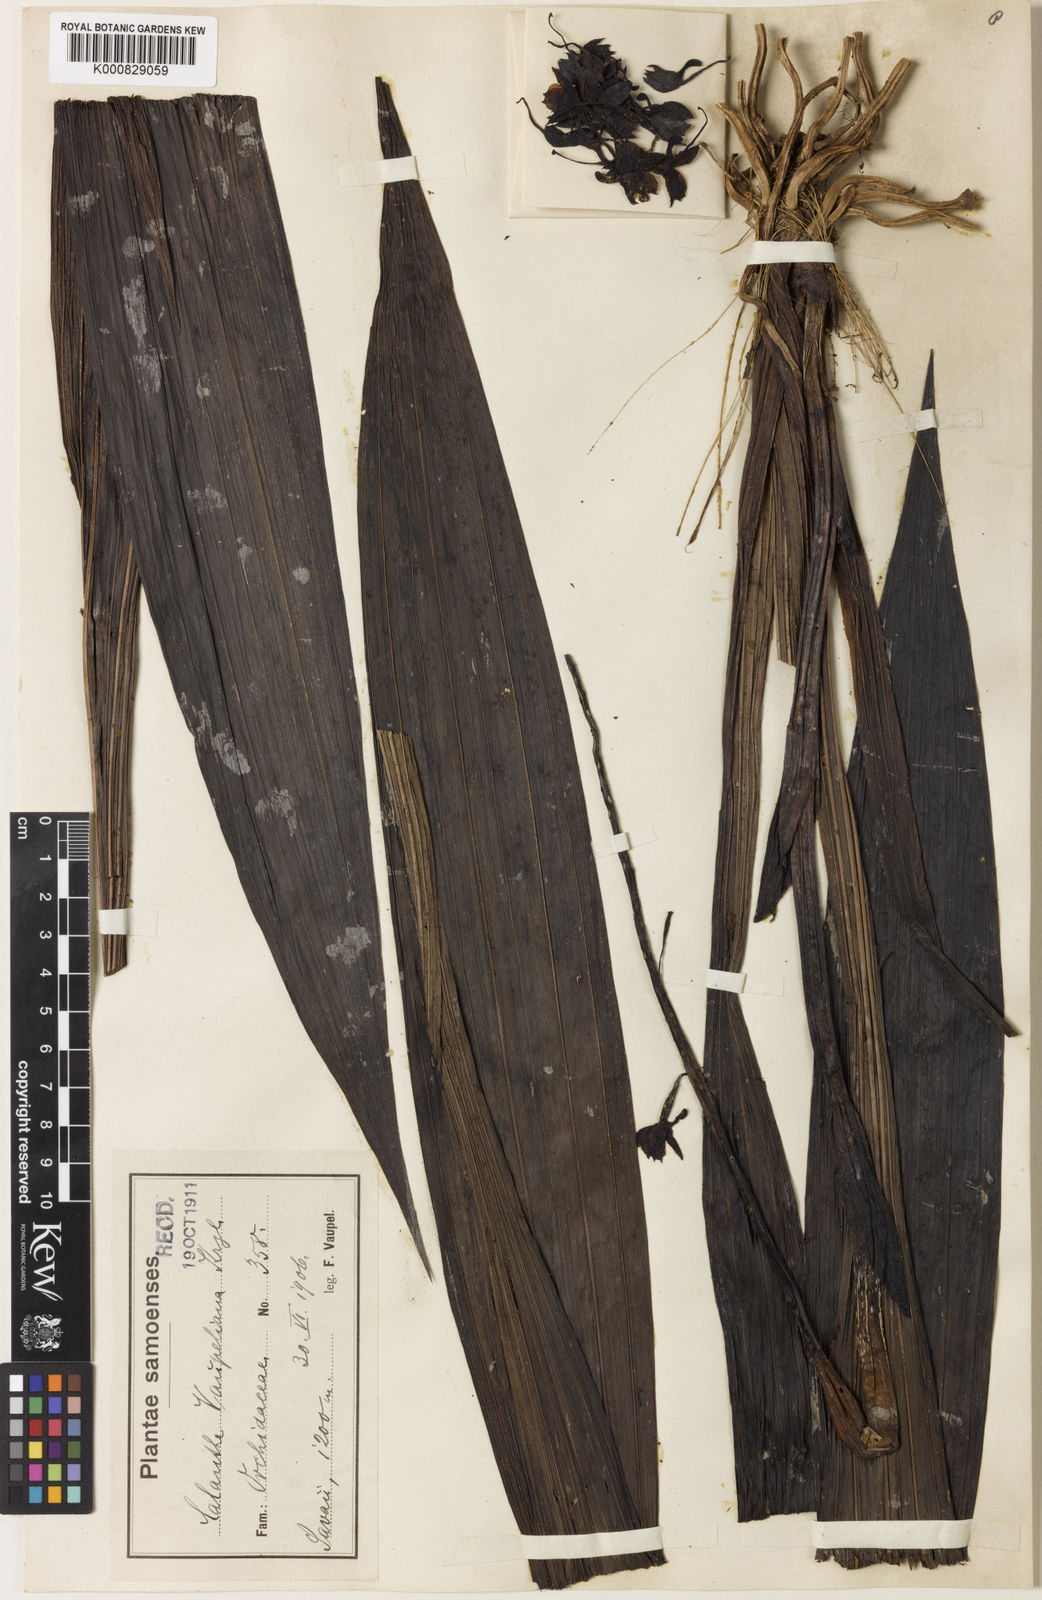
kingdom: Plantae
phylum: Tracheophyta
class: Liliopsida
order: Asparagales
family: Orchidaceae
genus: Calanthe
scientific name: Calanthe hololeuca
